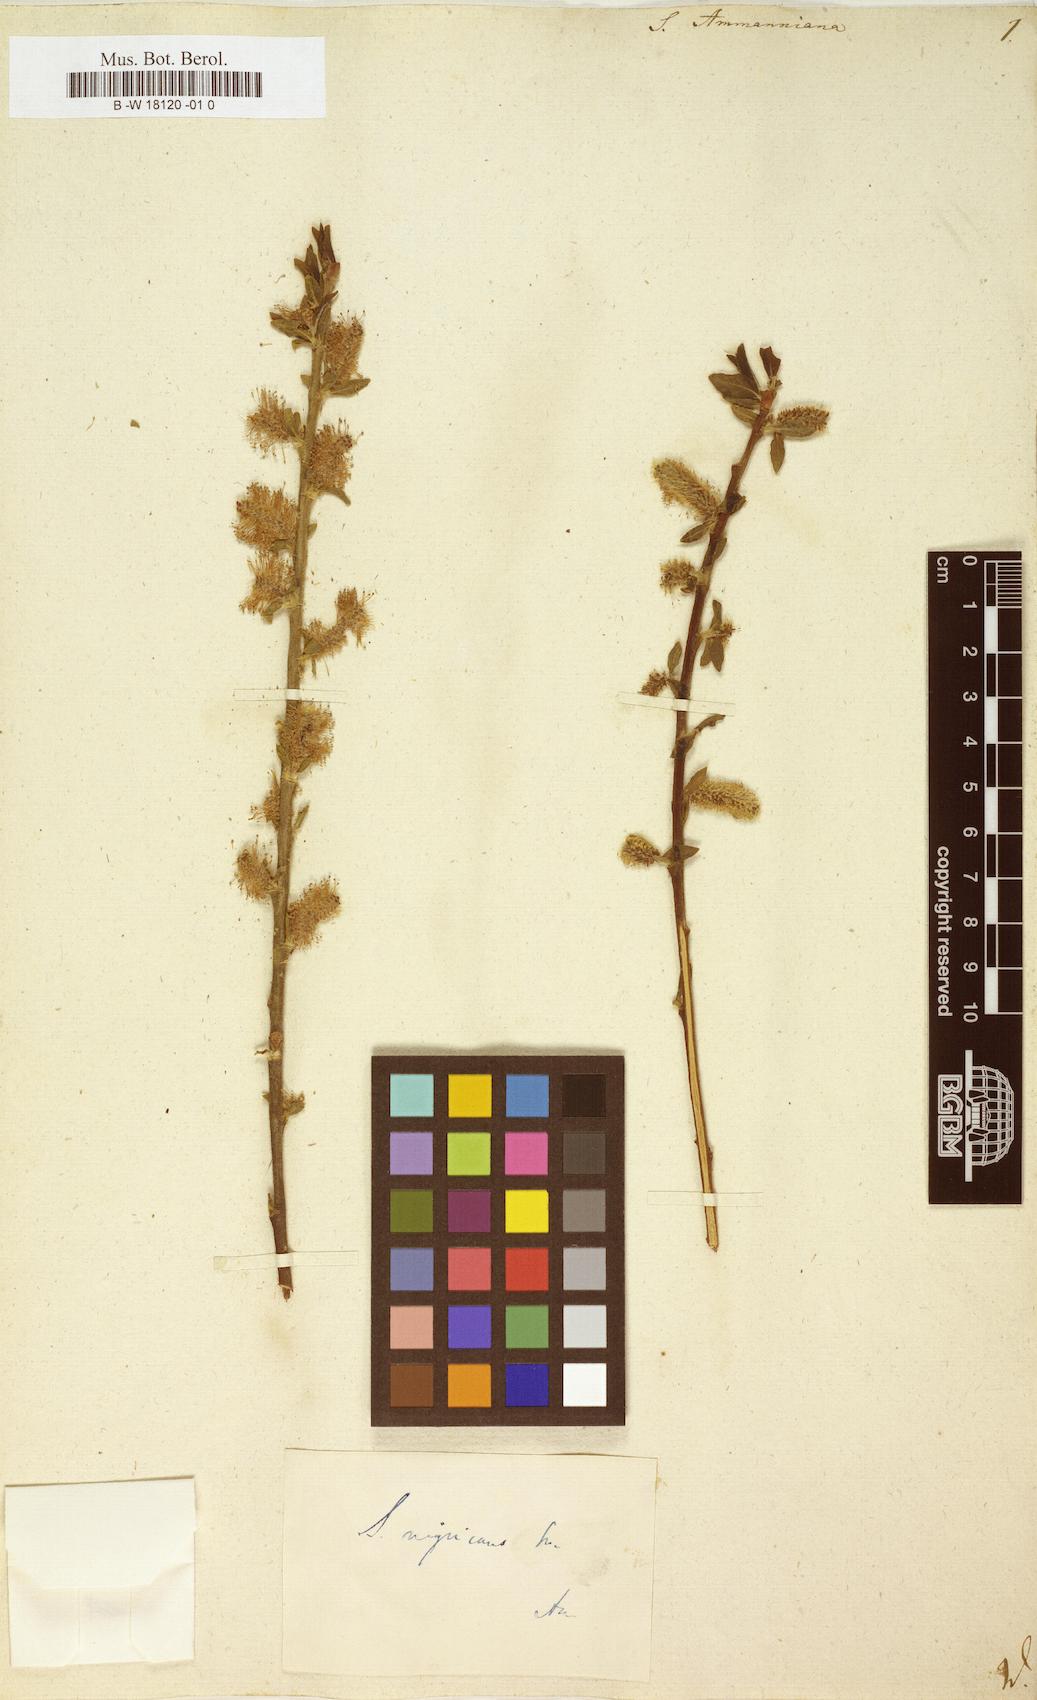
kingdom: Plantae
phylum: Tracheophyta
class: Magnoliopsida
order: Malpighiales
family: Salicaceae
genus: Salix
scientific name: Salix myrsinifolia
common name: Dark-leaved willow
